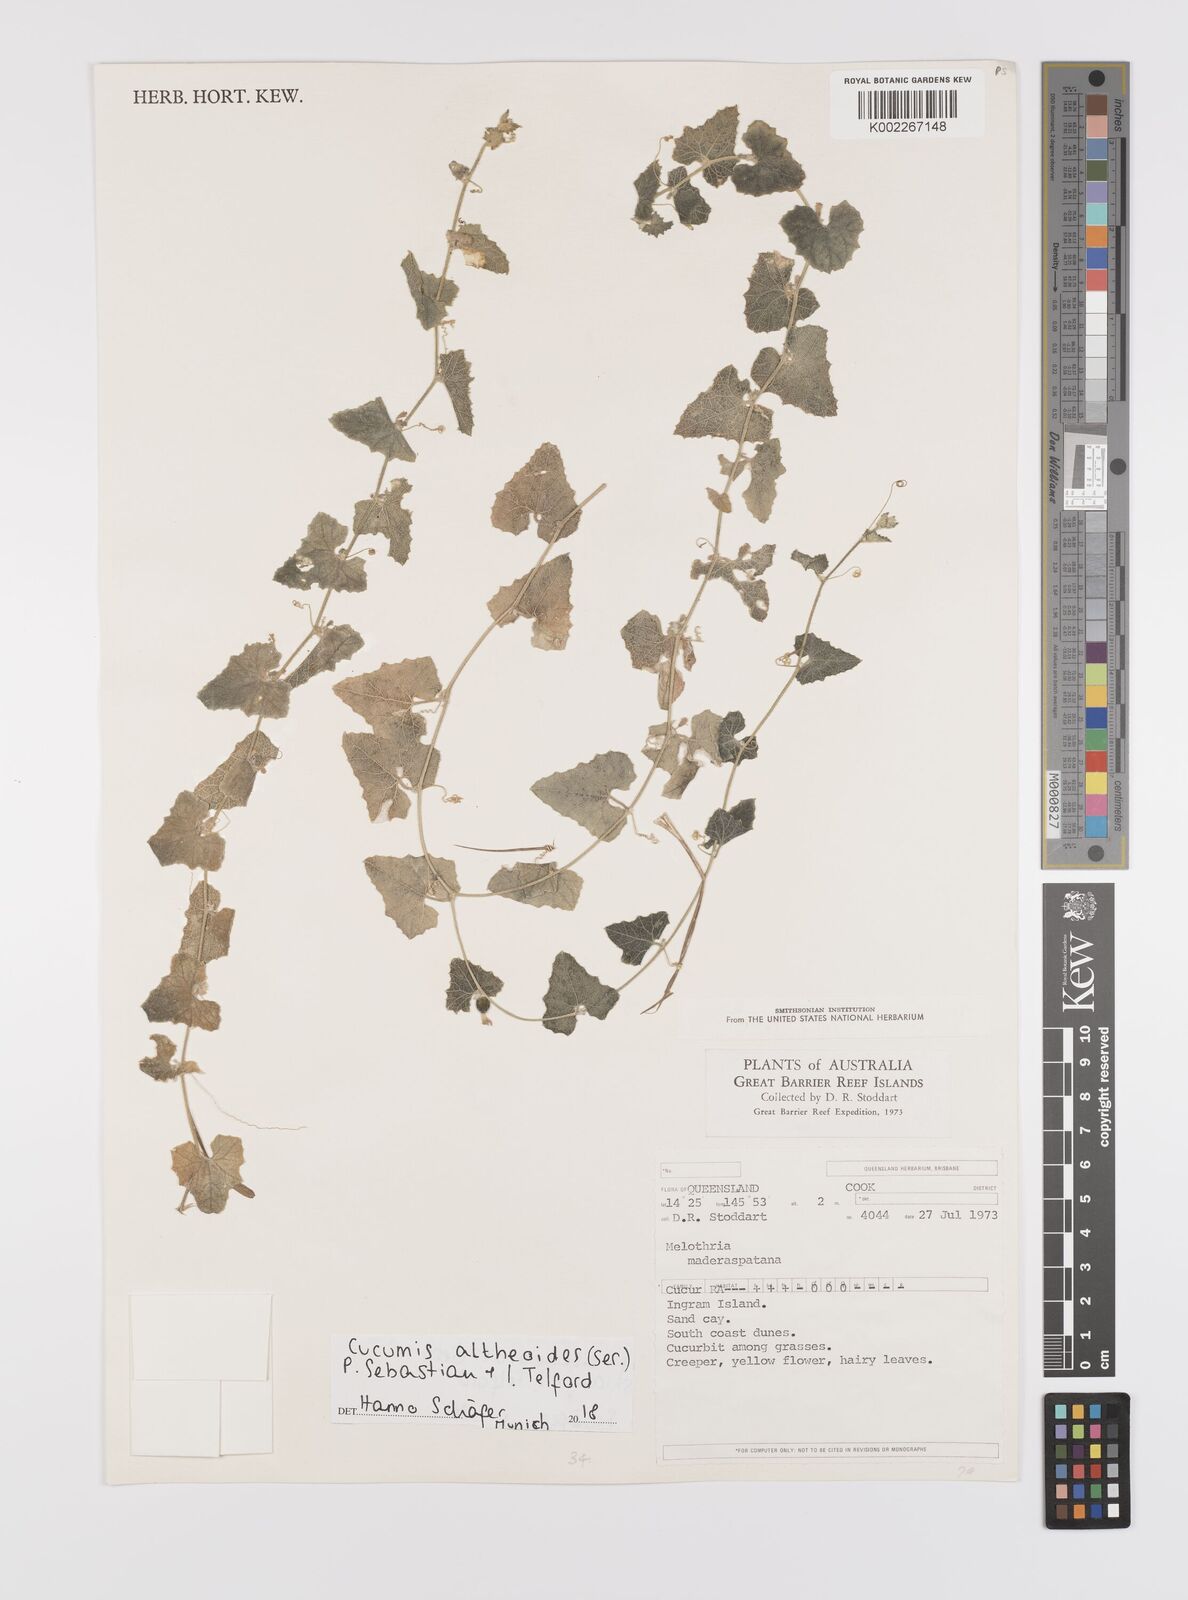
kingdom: Plantae
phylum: Tracheophyta
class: Magnoliopsida
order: Cucurbitales
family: Cucurbitaceae
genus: Cucumis
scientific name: Cucumis althaeoides
